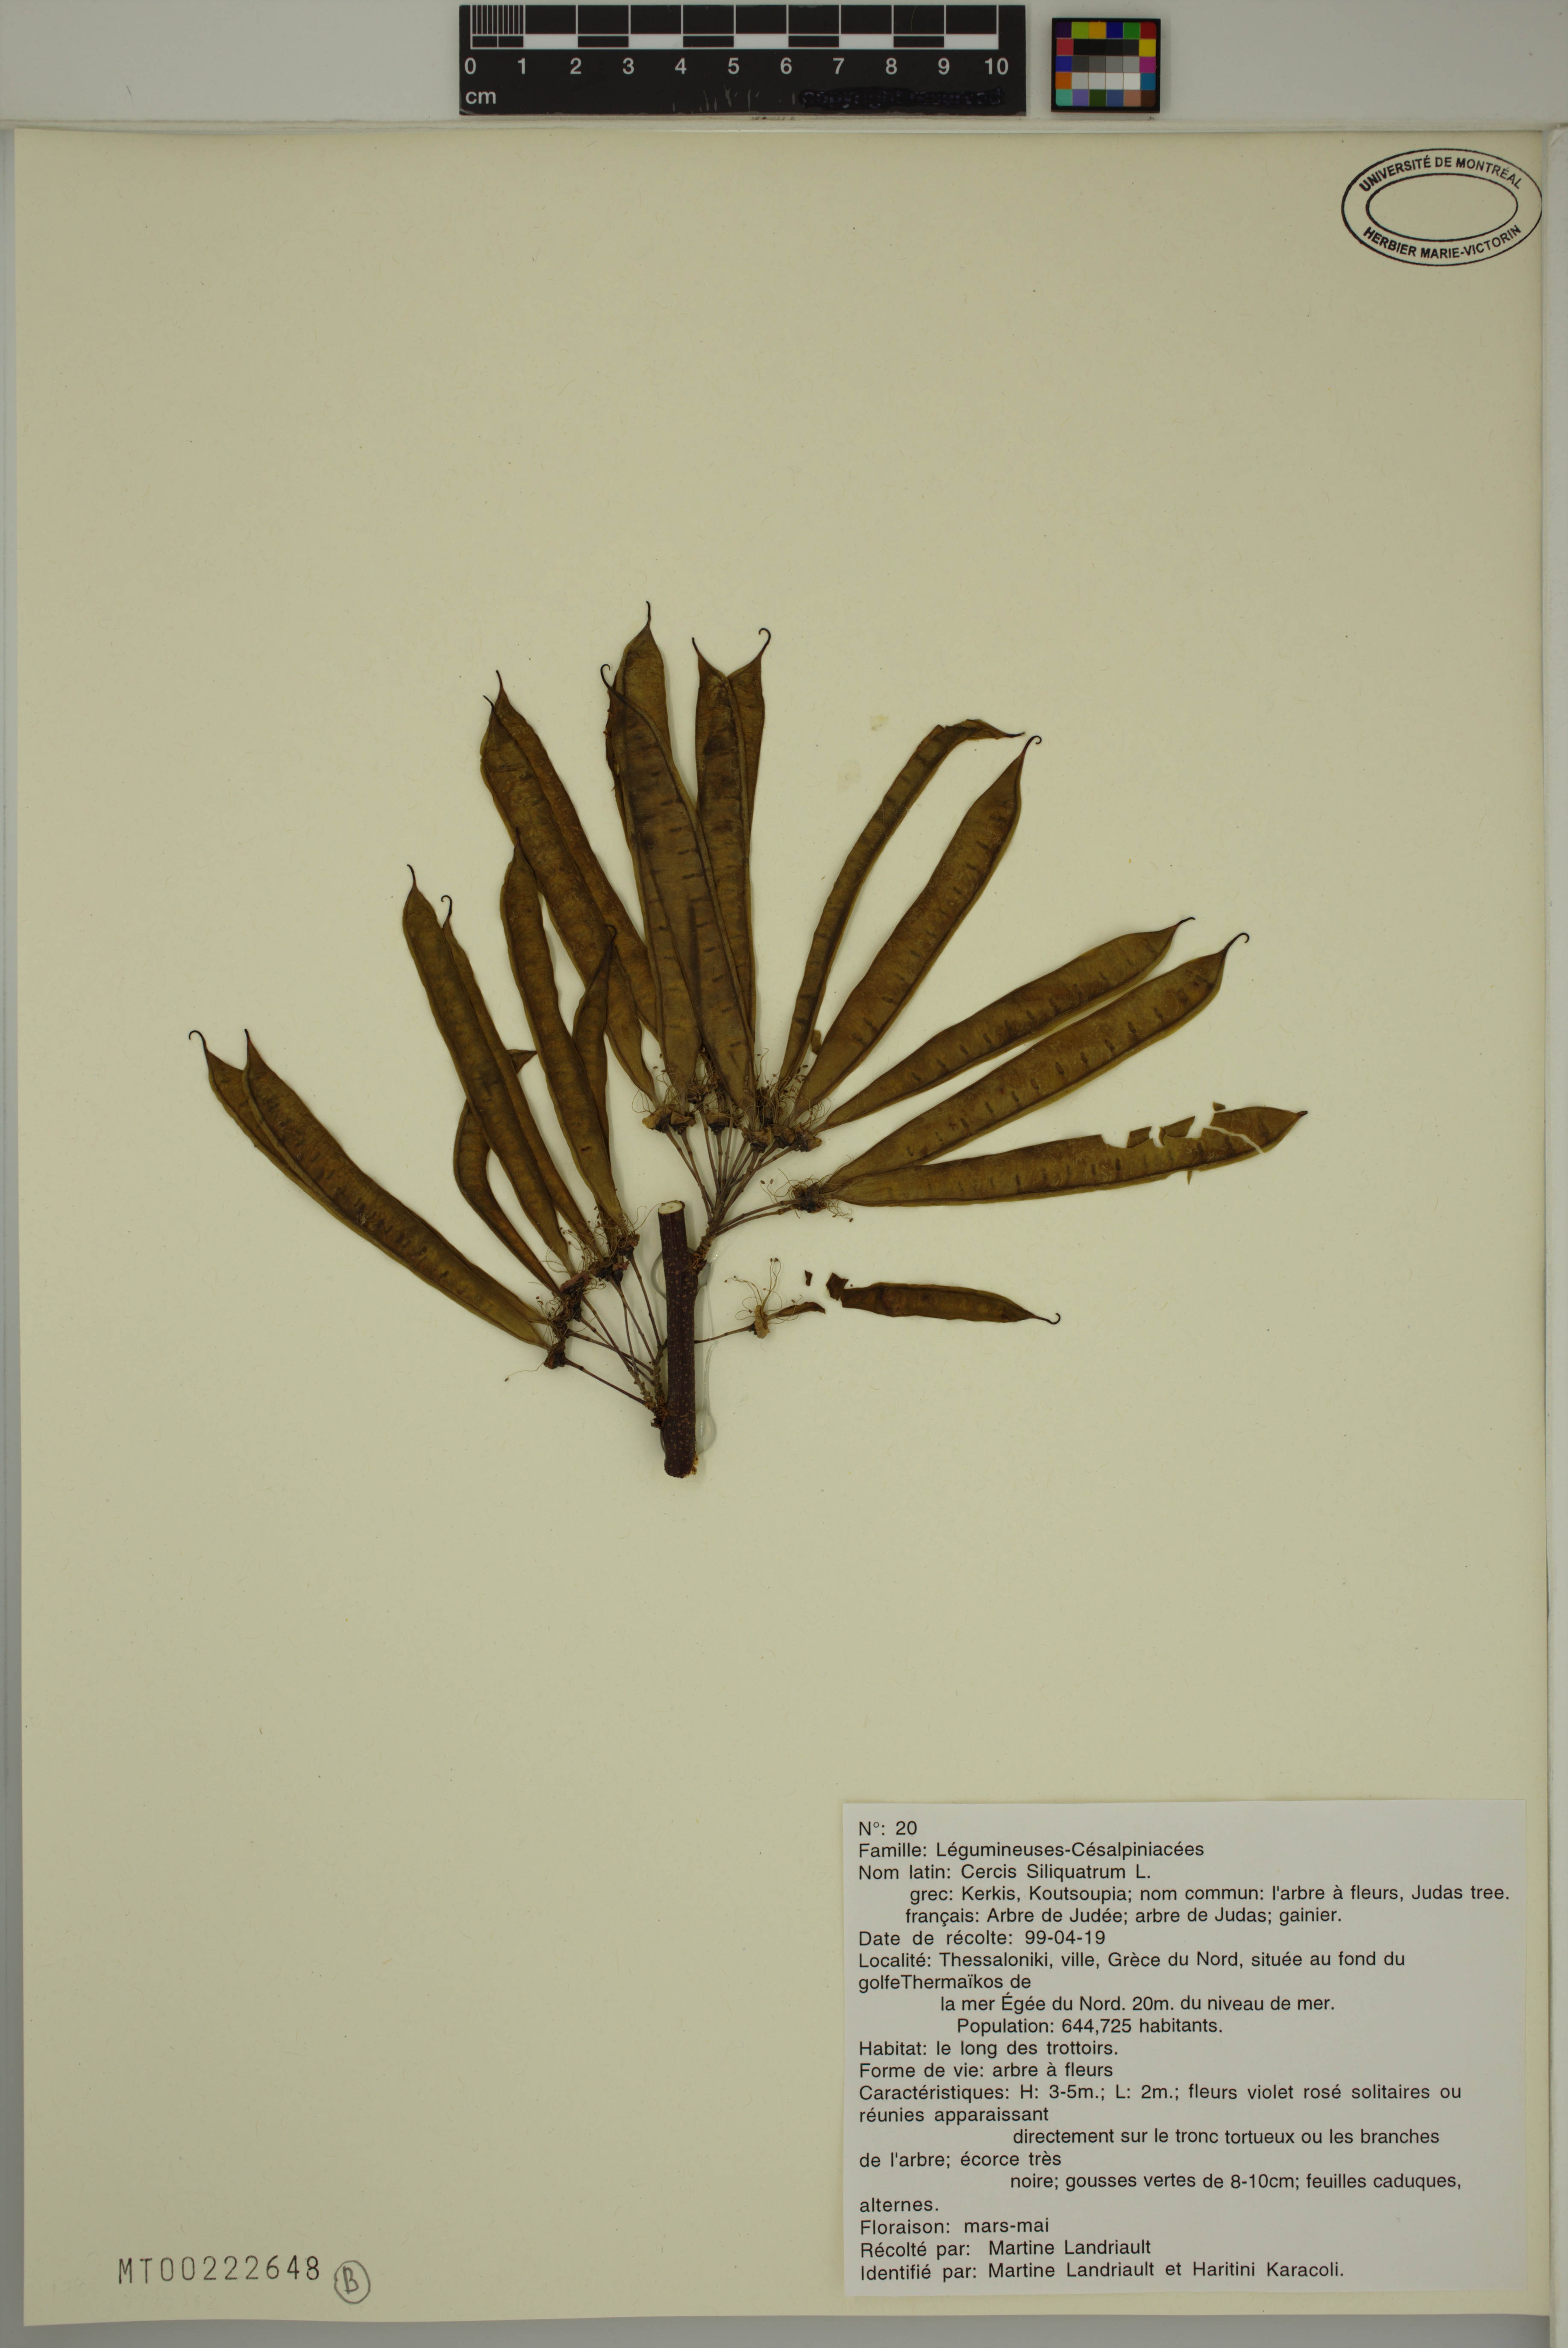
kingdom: Plantae
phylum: Tracheophyta
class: Magnoliopsida
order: Fabales
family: Fabaceae
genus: Cercis
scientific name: Cercis siliquastrum
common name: Judas tree
